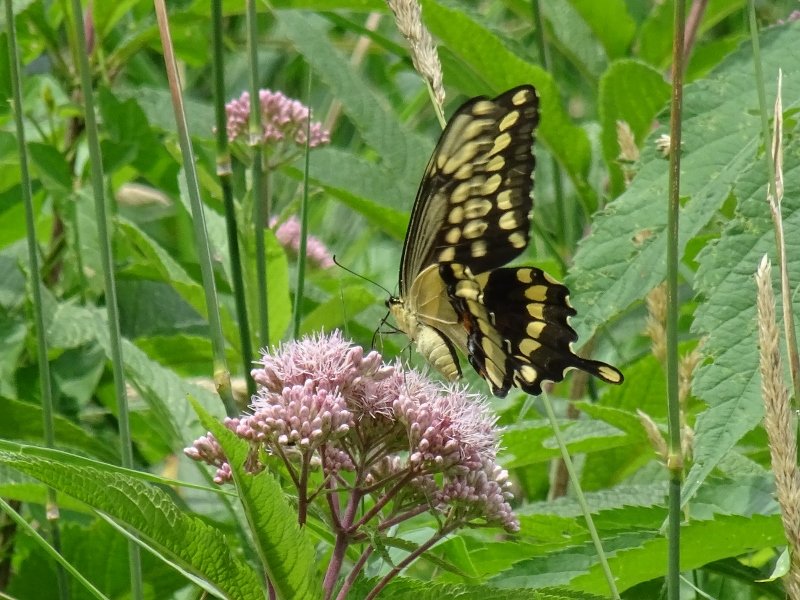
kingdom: Animalia
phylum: Arthropoda
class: Insecta
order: Lepidoptera
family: Papilionidae
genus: Papilio
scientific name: Papilio cresphontes
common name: Eastern Giant Swallowtail
